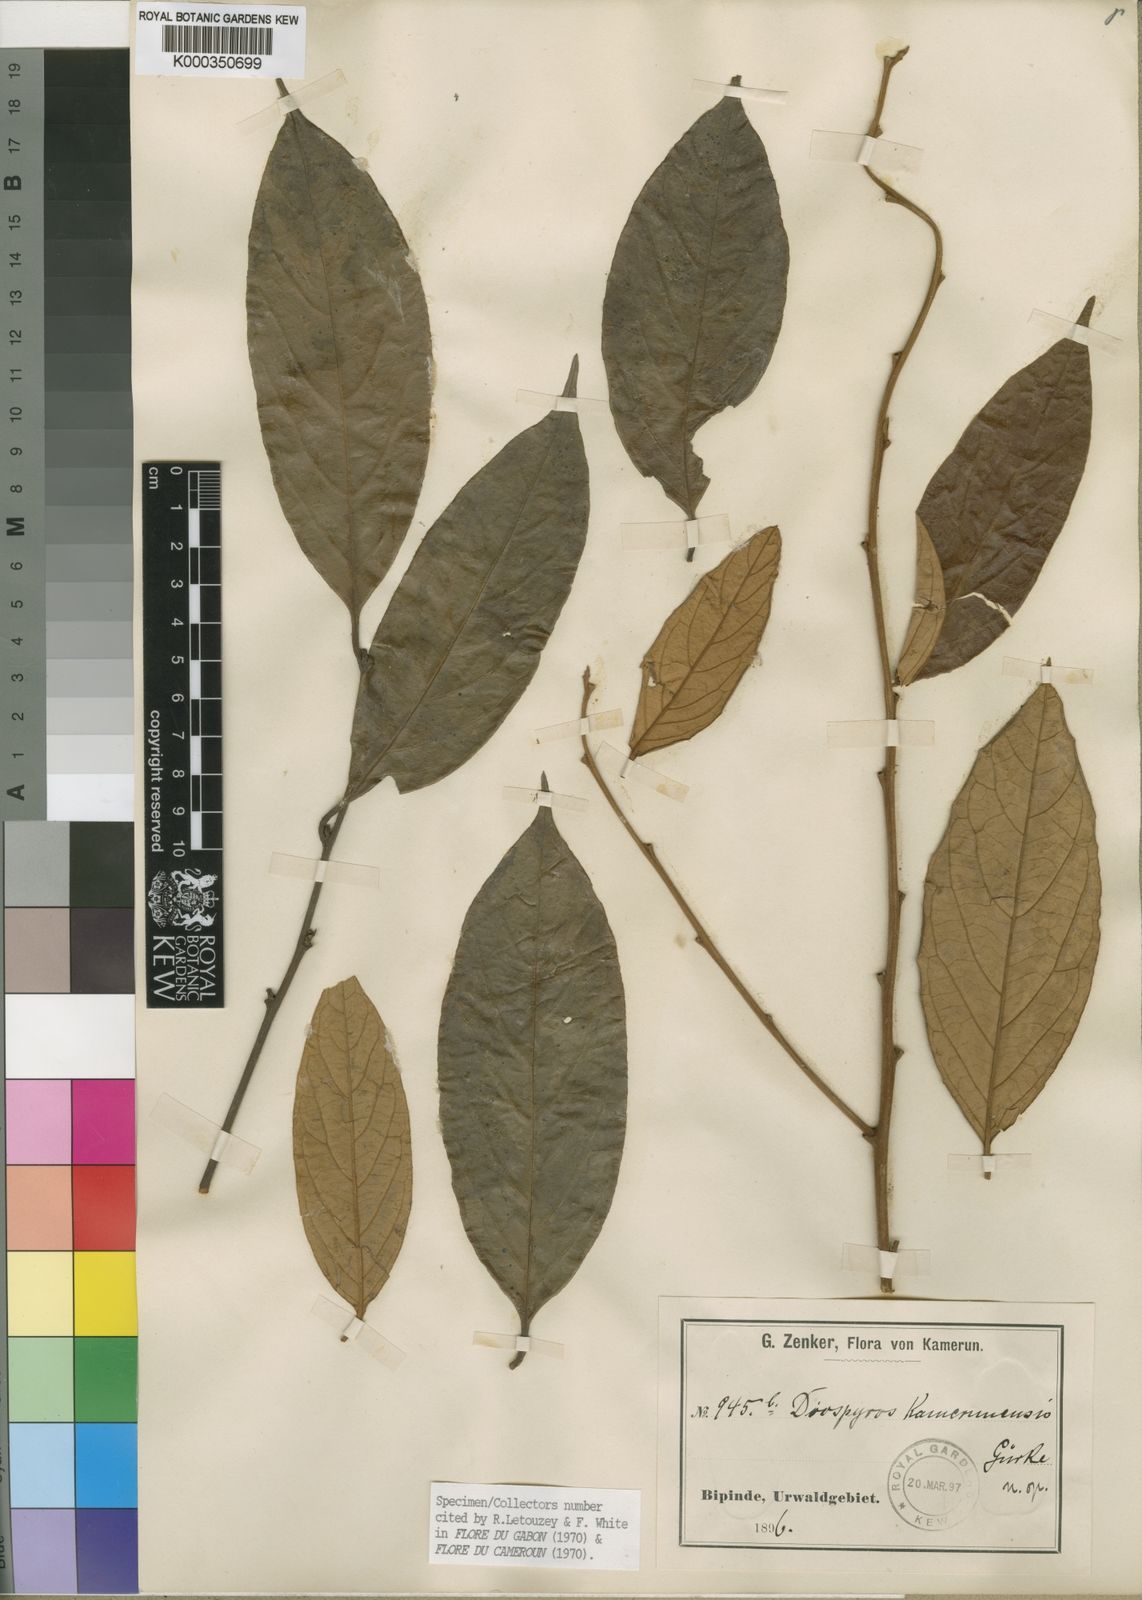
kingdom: Plantae
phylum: Tracheophyta
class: Magnoliopsida
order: Ericales
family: Ebenaceae
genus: Diospyros
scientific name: Diospyros
